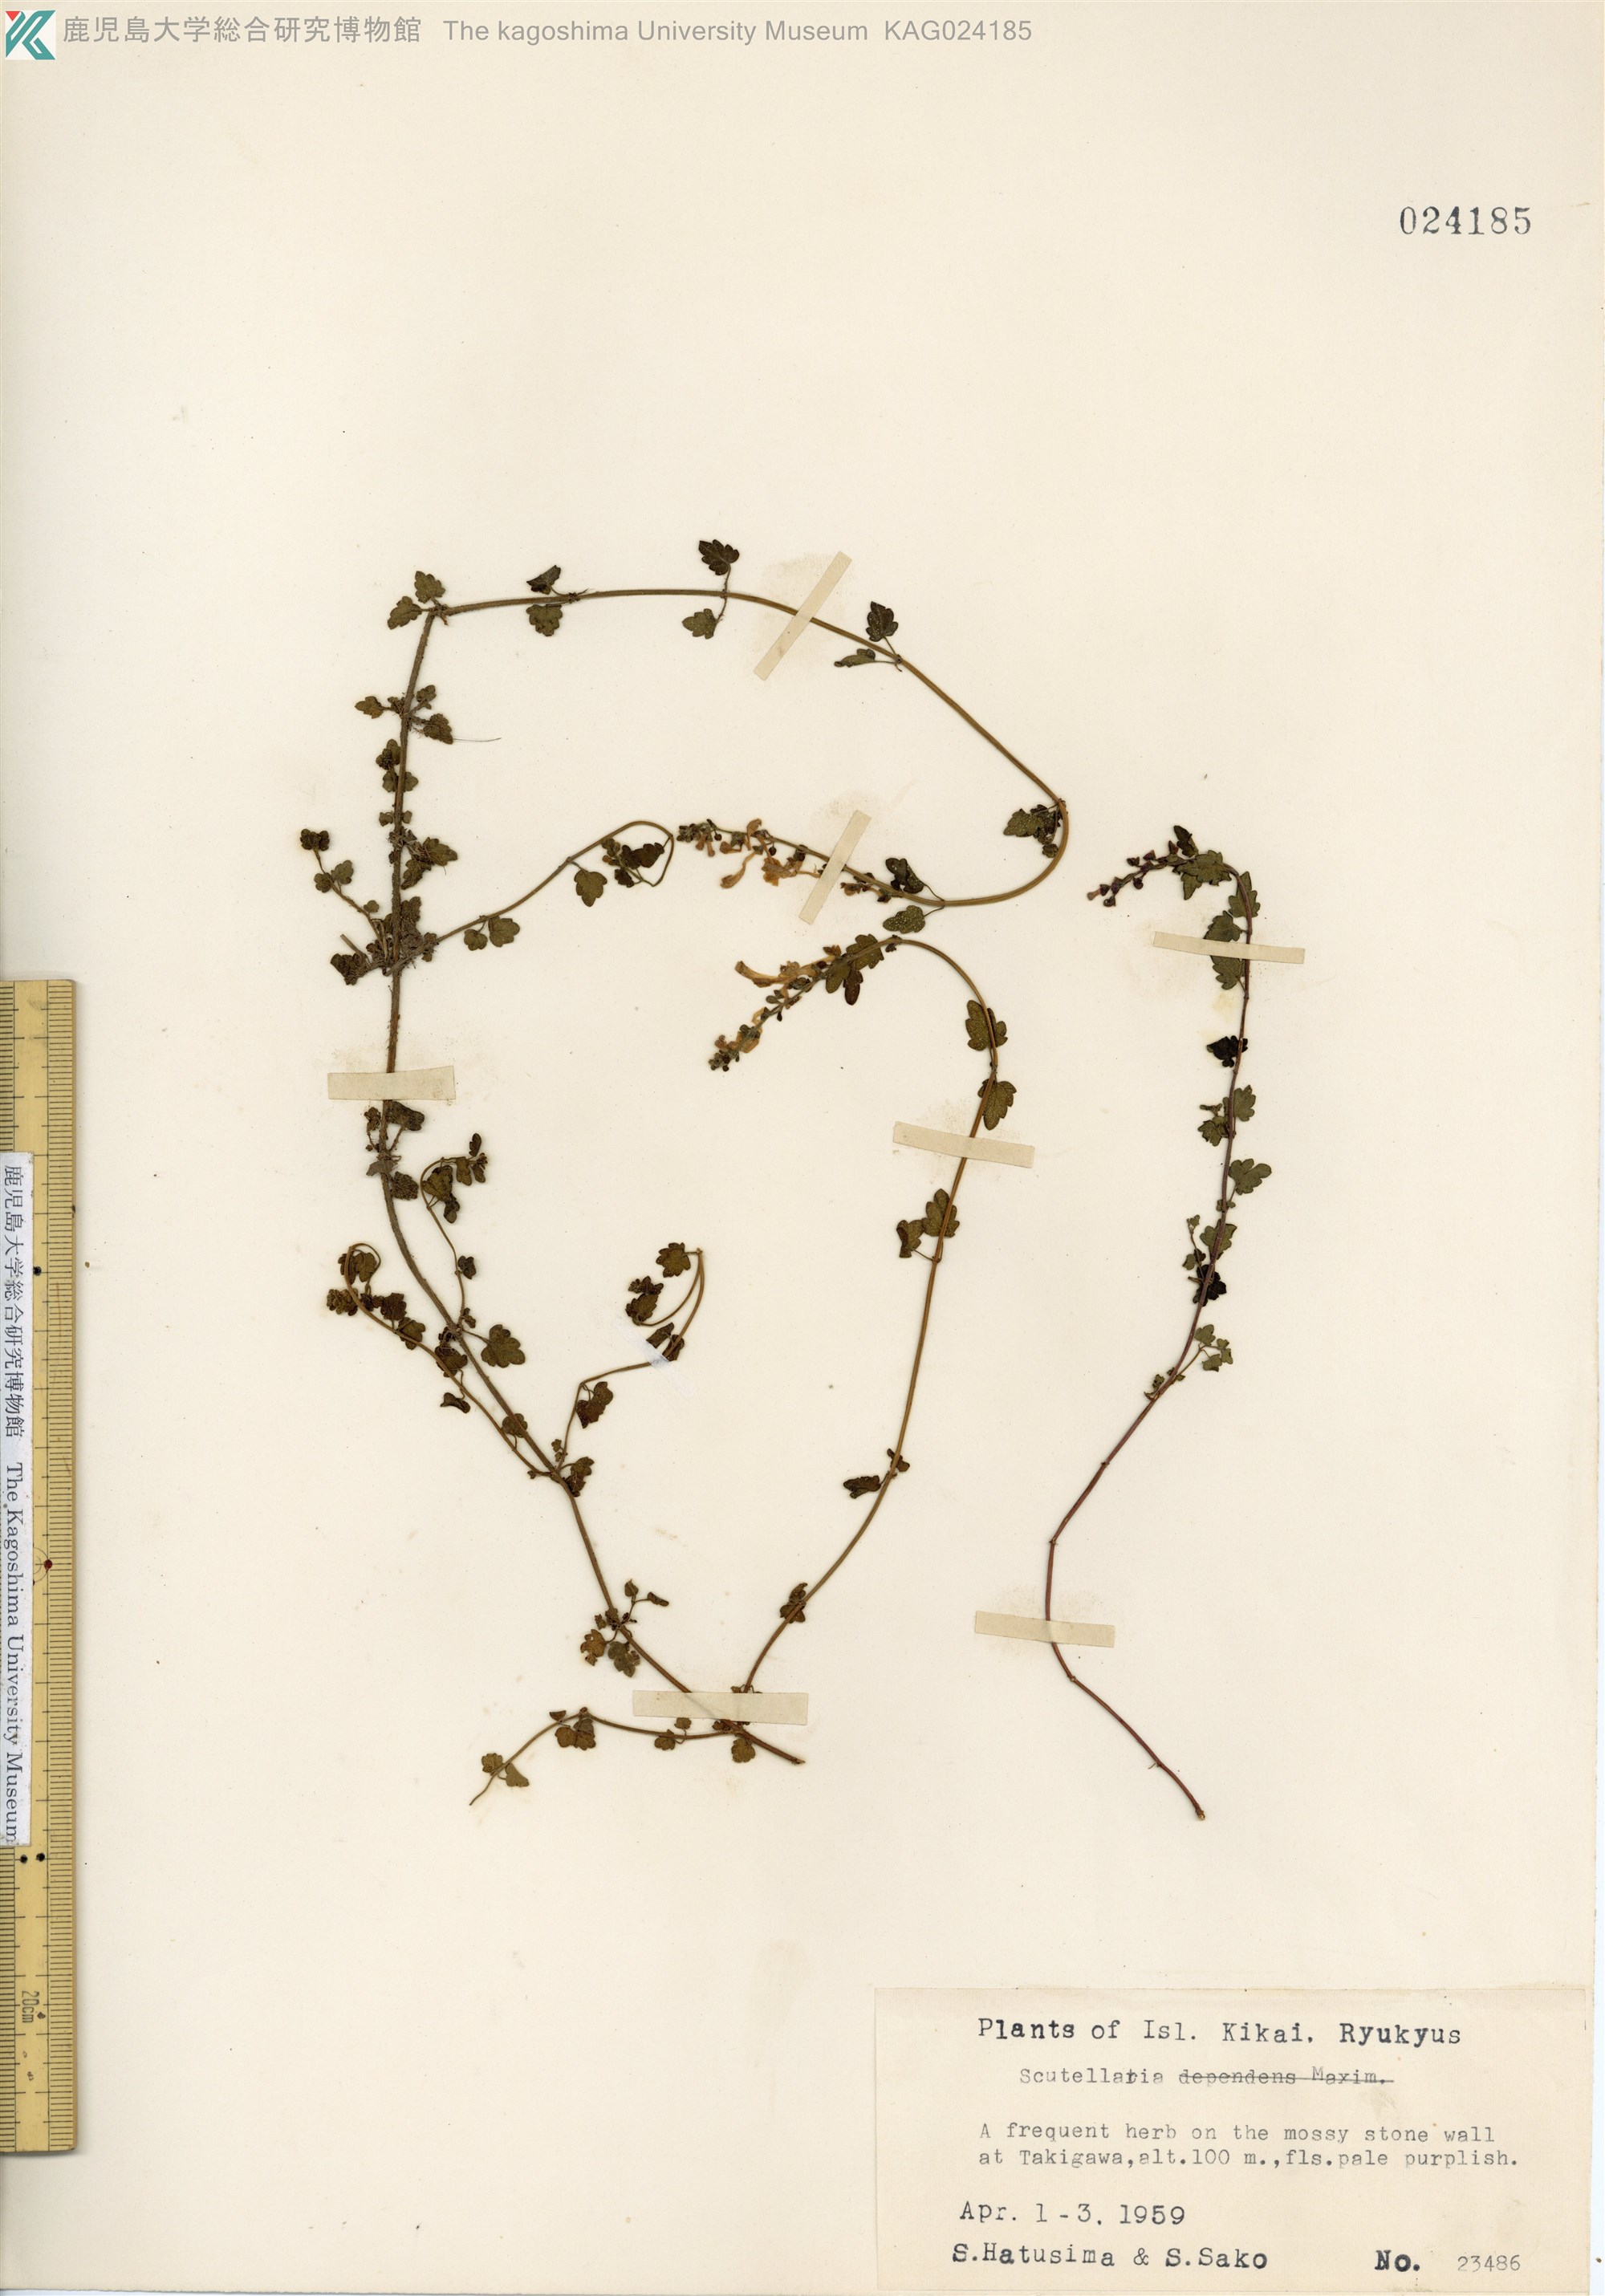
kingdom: Plantae
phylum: Tracheophyta
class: Magnoliopsida
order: Lamiales
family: Lamiaceae
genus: Scutellaria
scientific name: Scutellaria kikai-insularis
